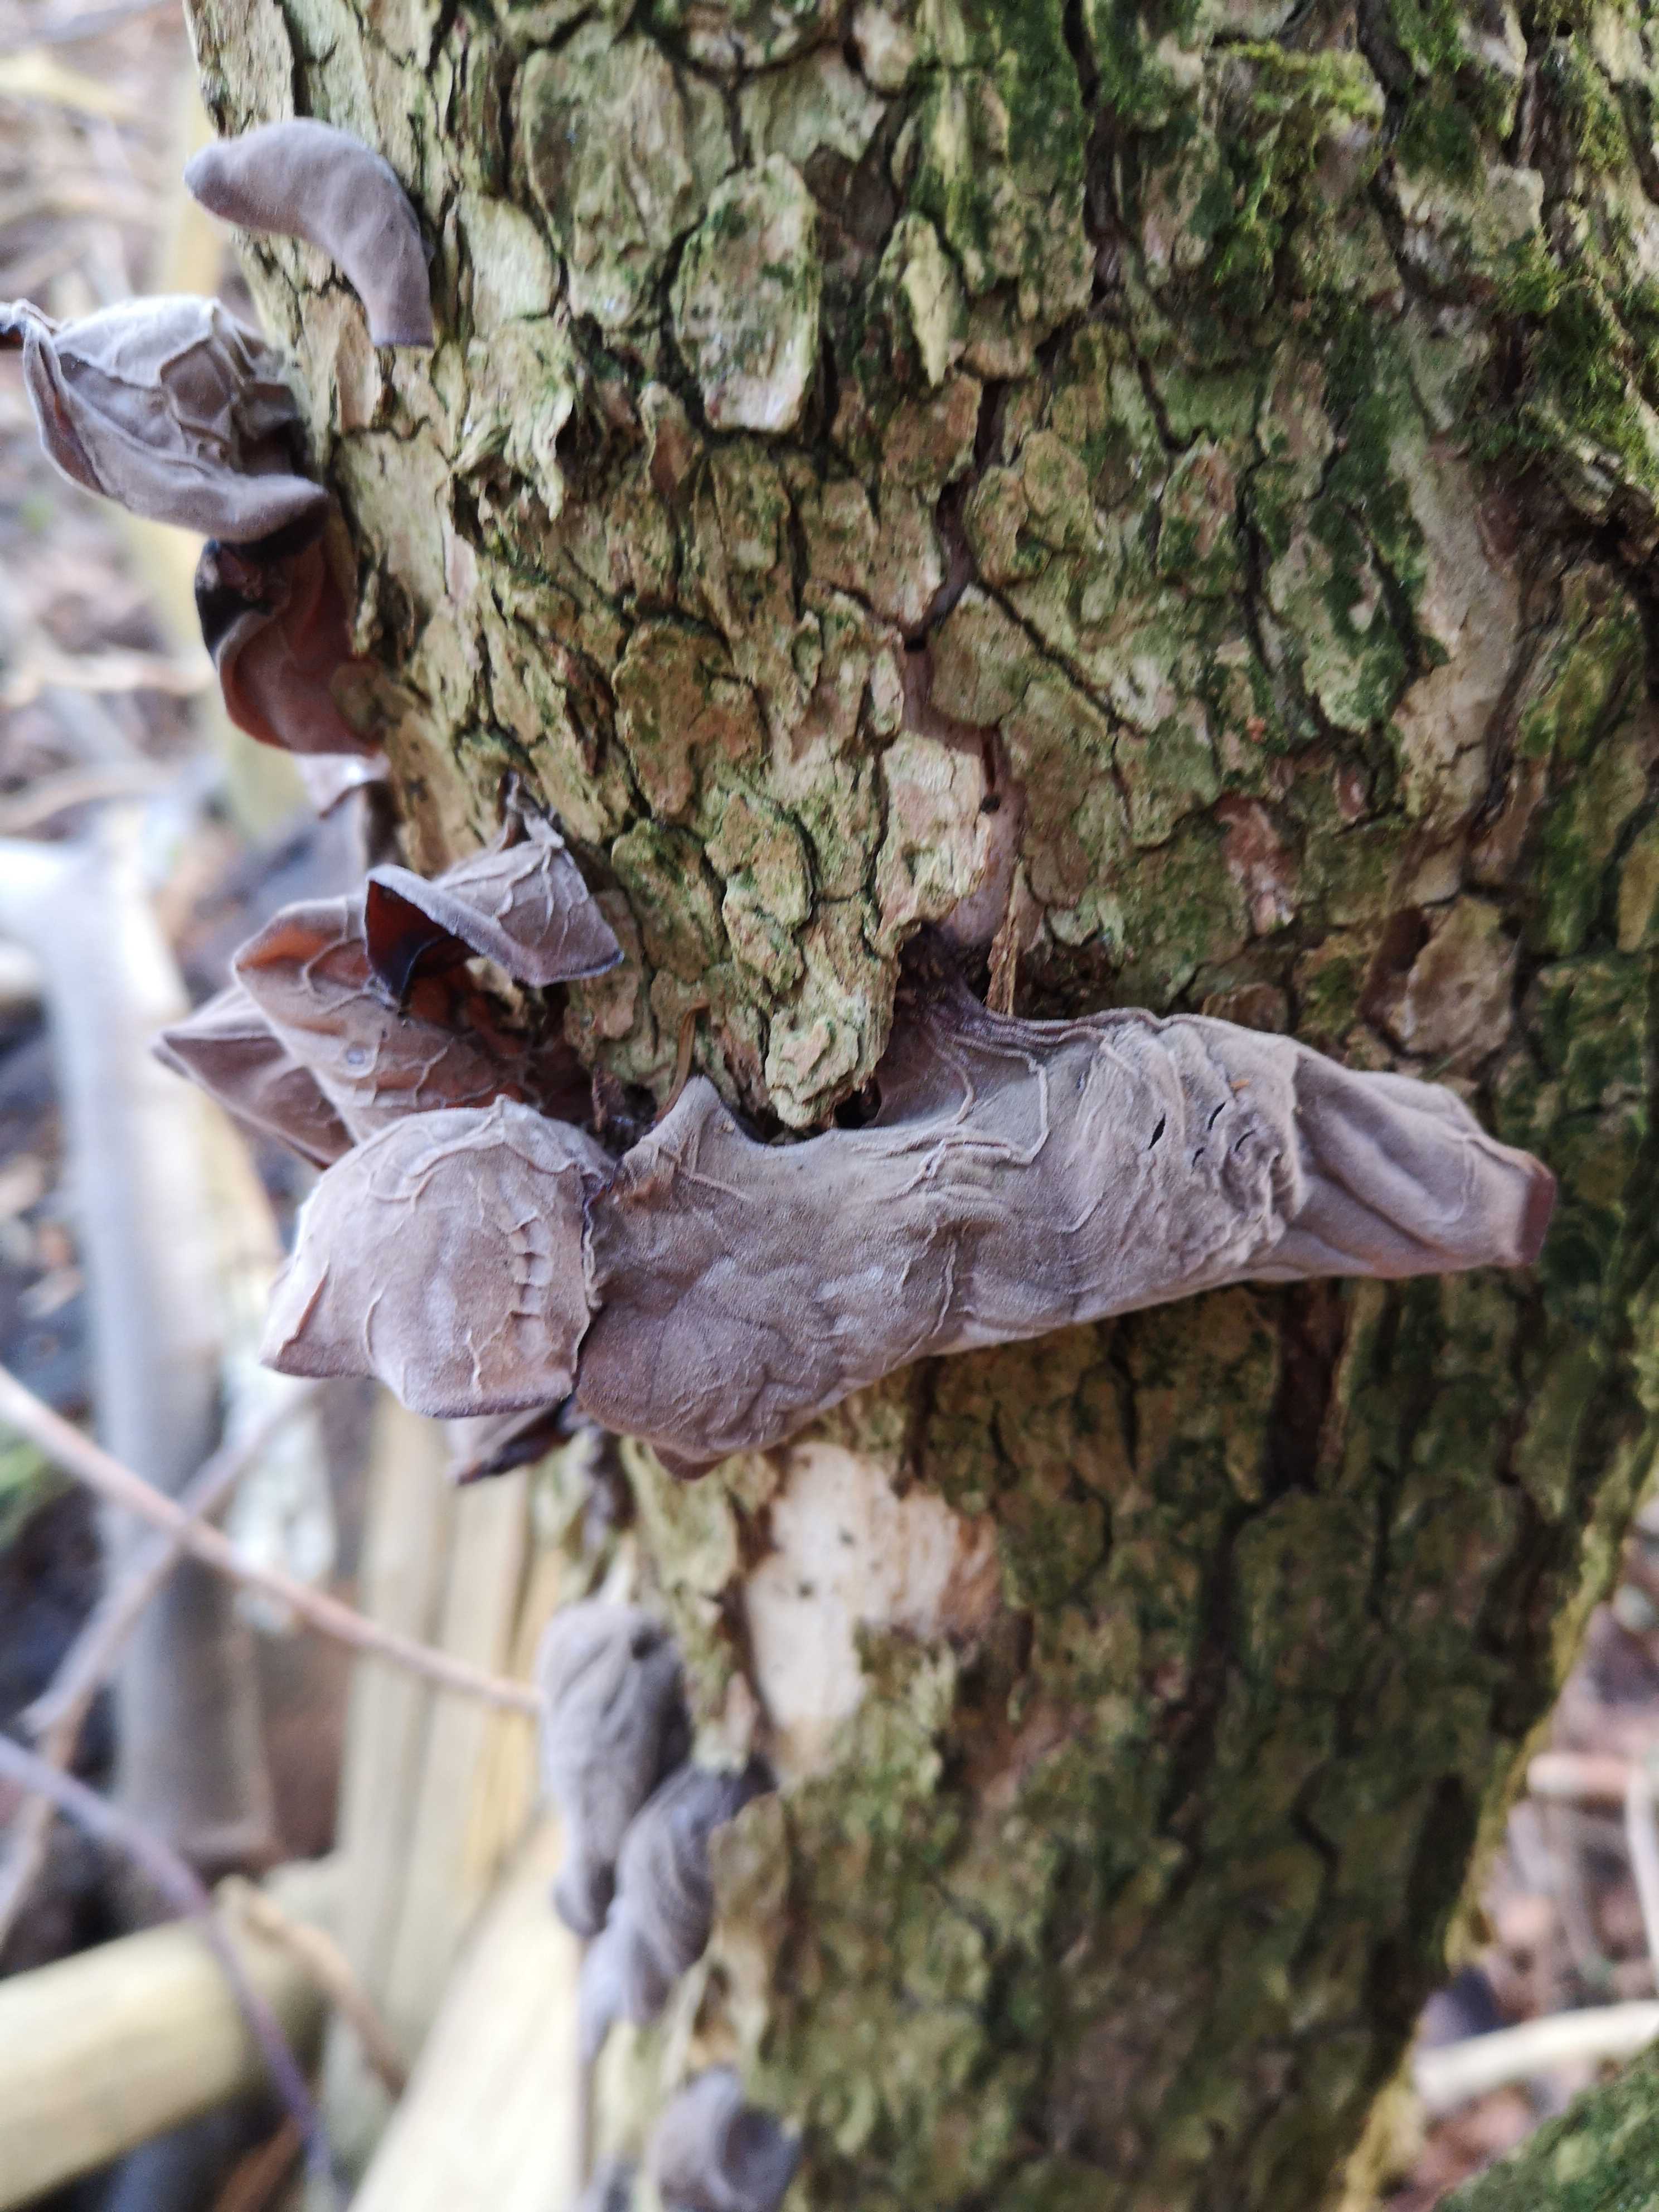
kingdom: Fungi
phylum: Basidiomycota
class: Agaricomycetes
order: Auriculariales
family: Auriculariaceae
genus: Auricularia
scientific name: Auricularia auricula-judae
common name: almindelig judasøre
